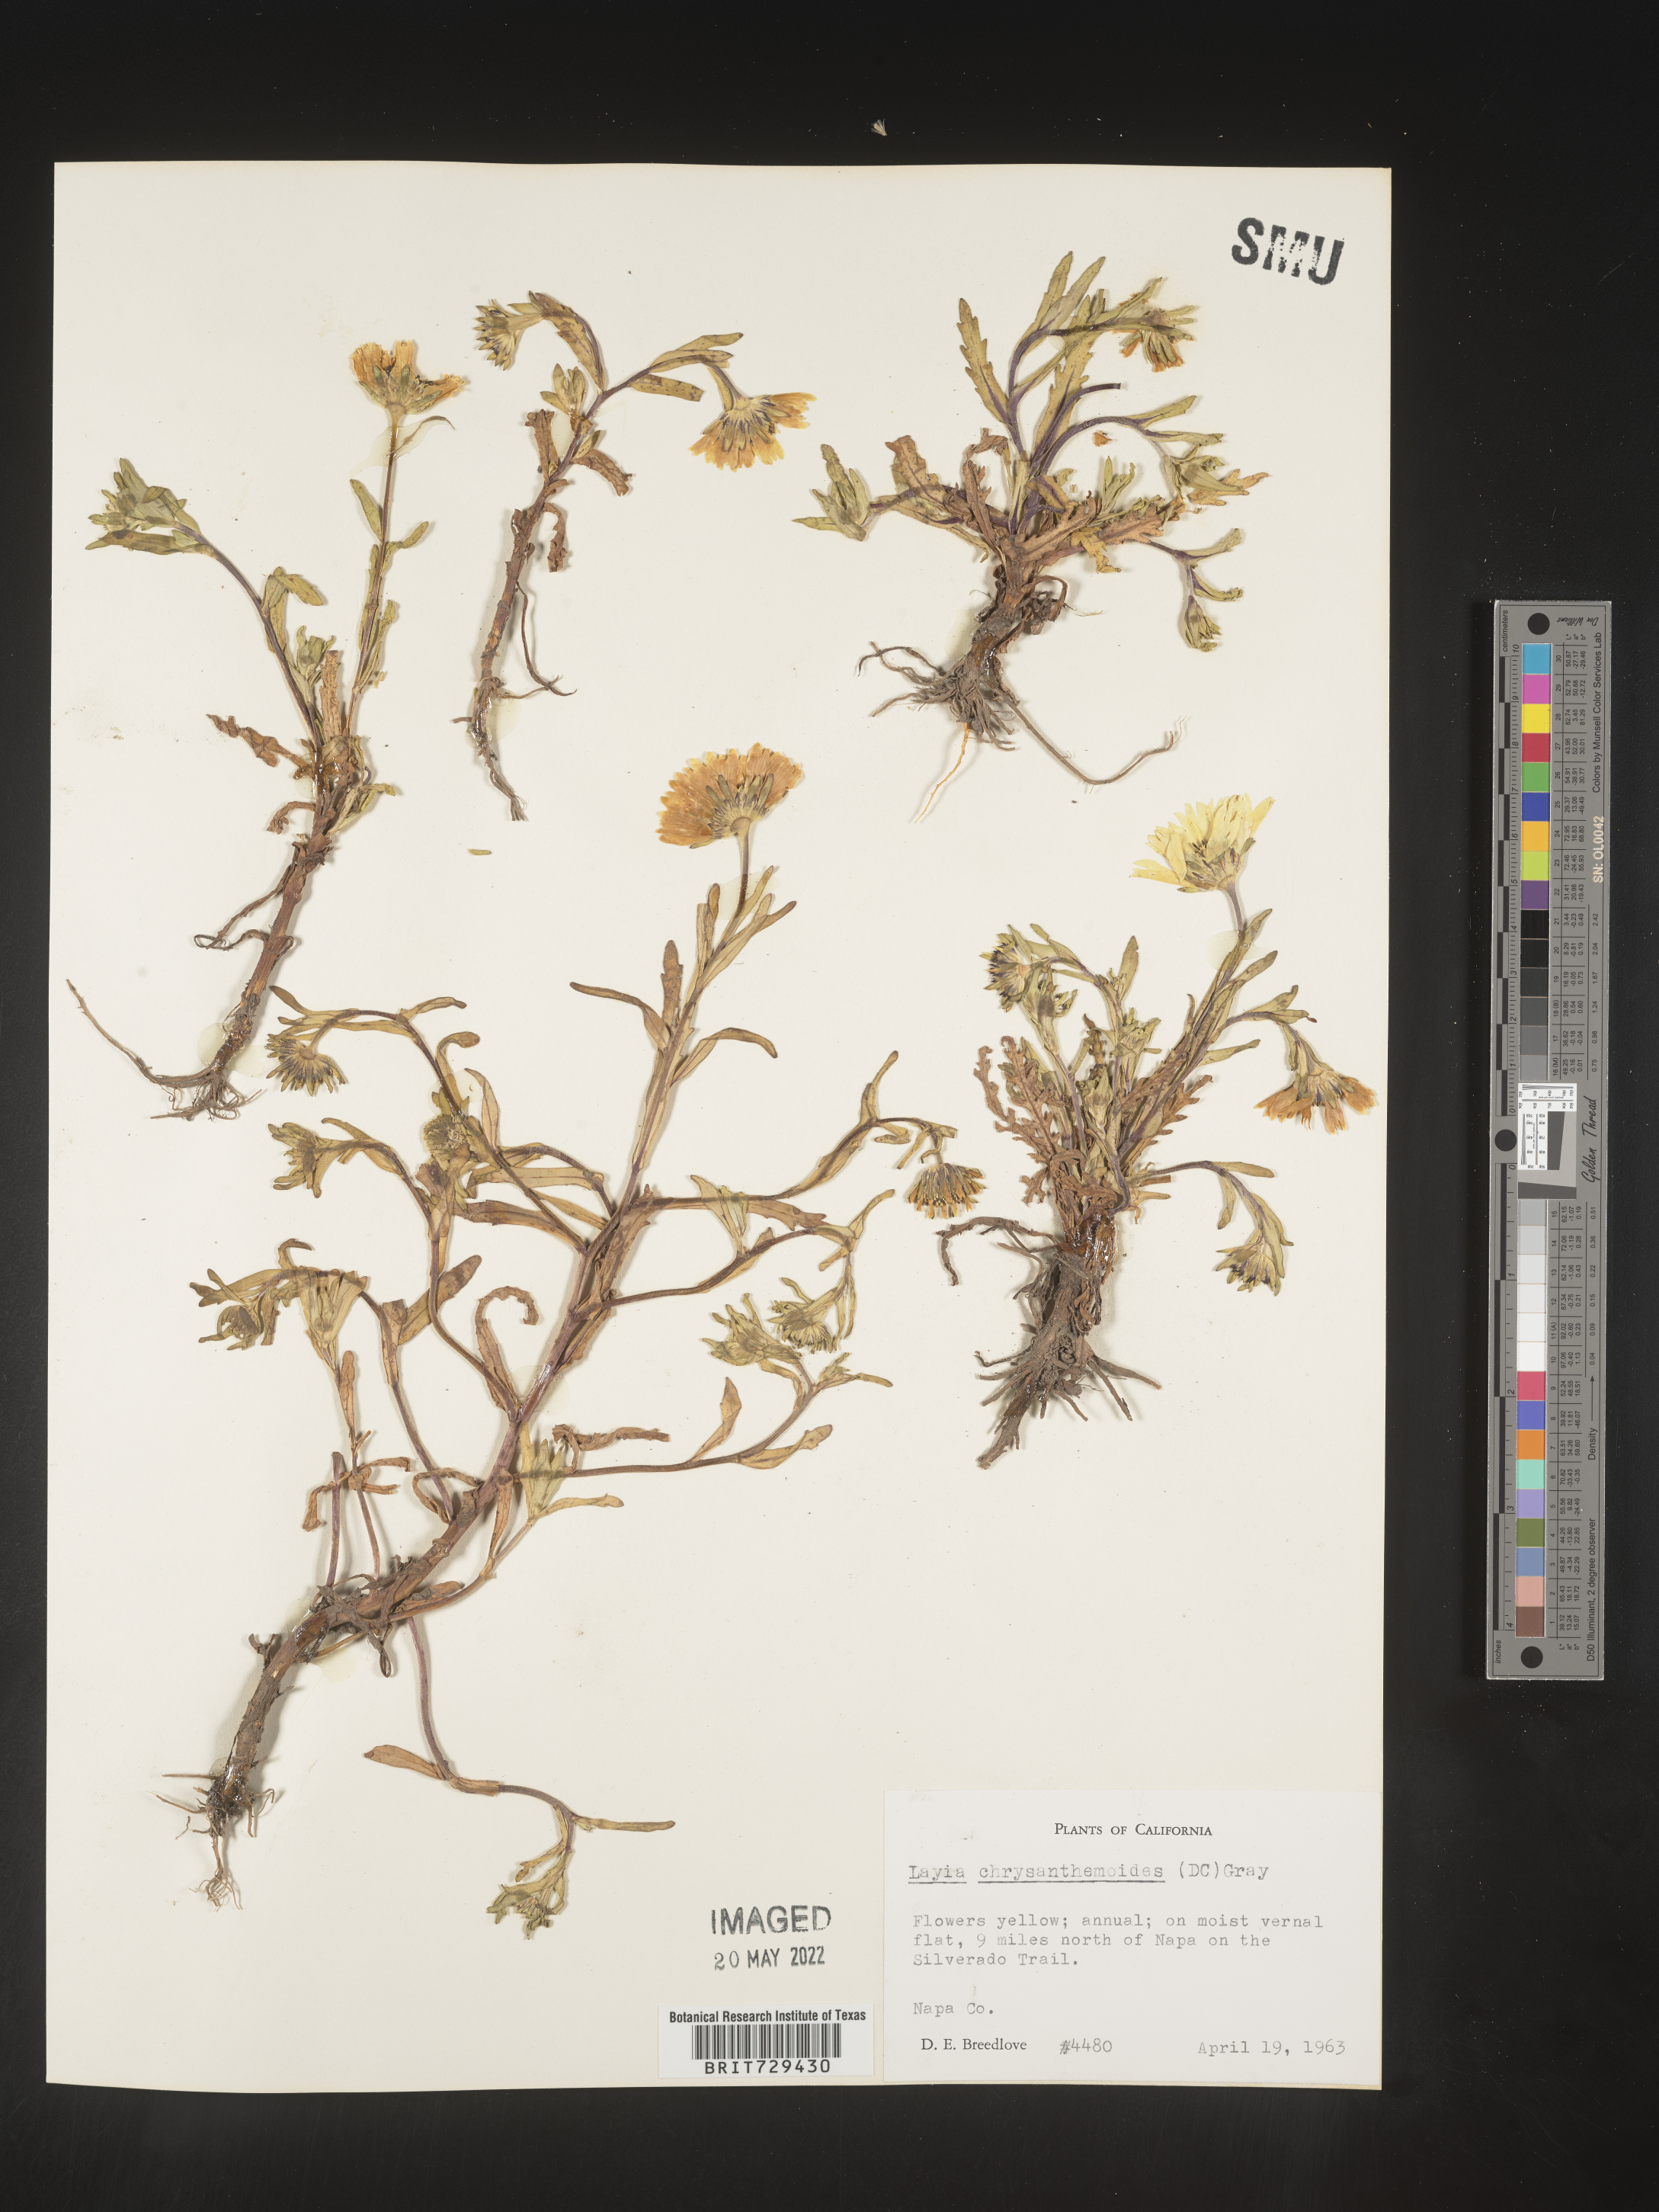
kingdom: Plantae
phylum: Tracheophyta
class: Magnoliopsida
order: Asterales
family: Asteraceae
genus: Layia
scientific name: Layia
